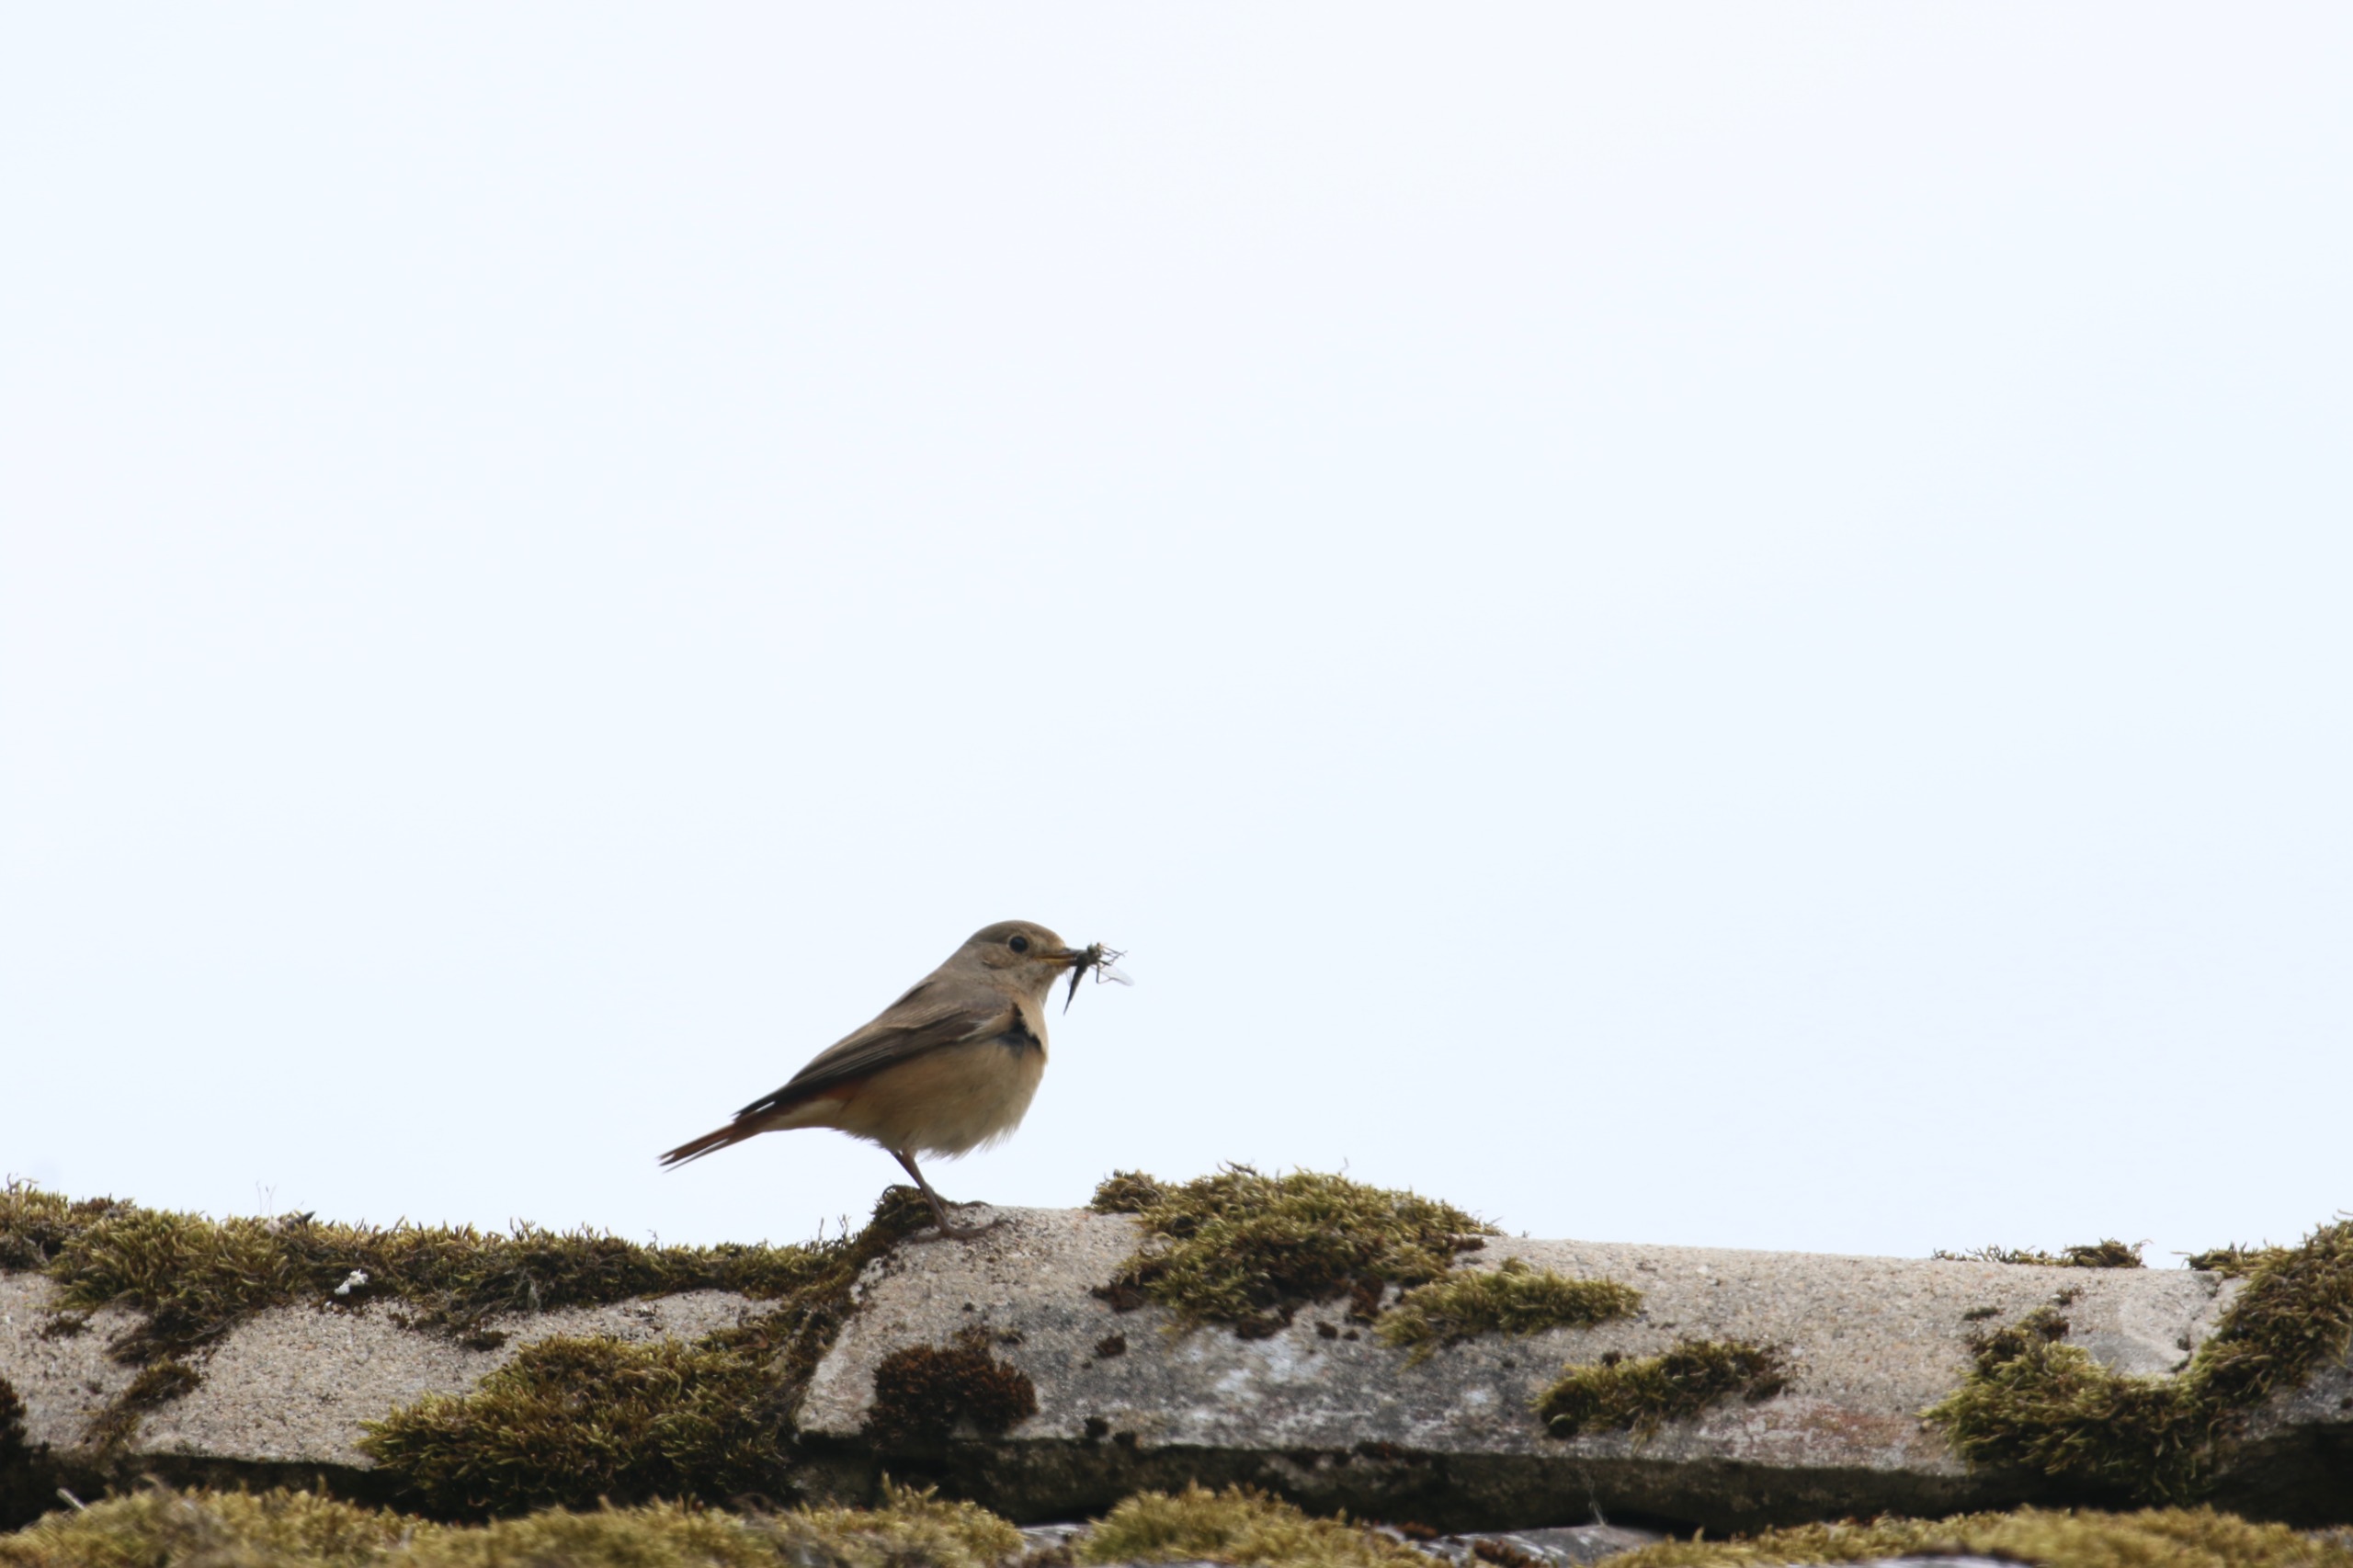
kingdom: Animalia
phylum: Chordata
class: Aves
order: Passeriformes
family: Muscicapidae
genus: Phoenicurus
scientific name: Phoenicurus phoenicurus
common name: Rødstjert
